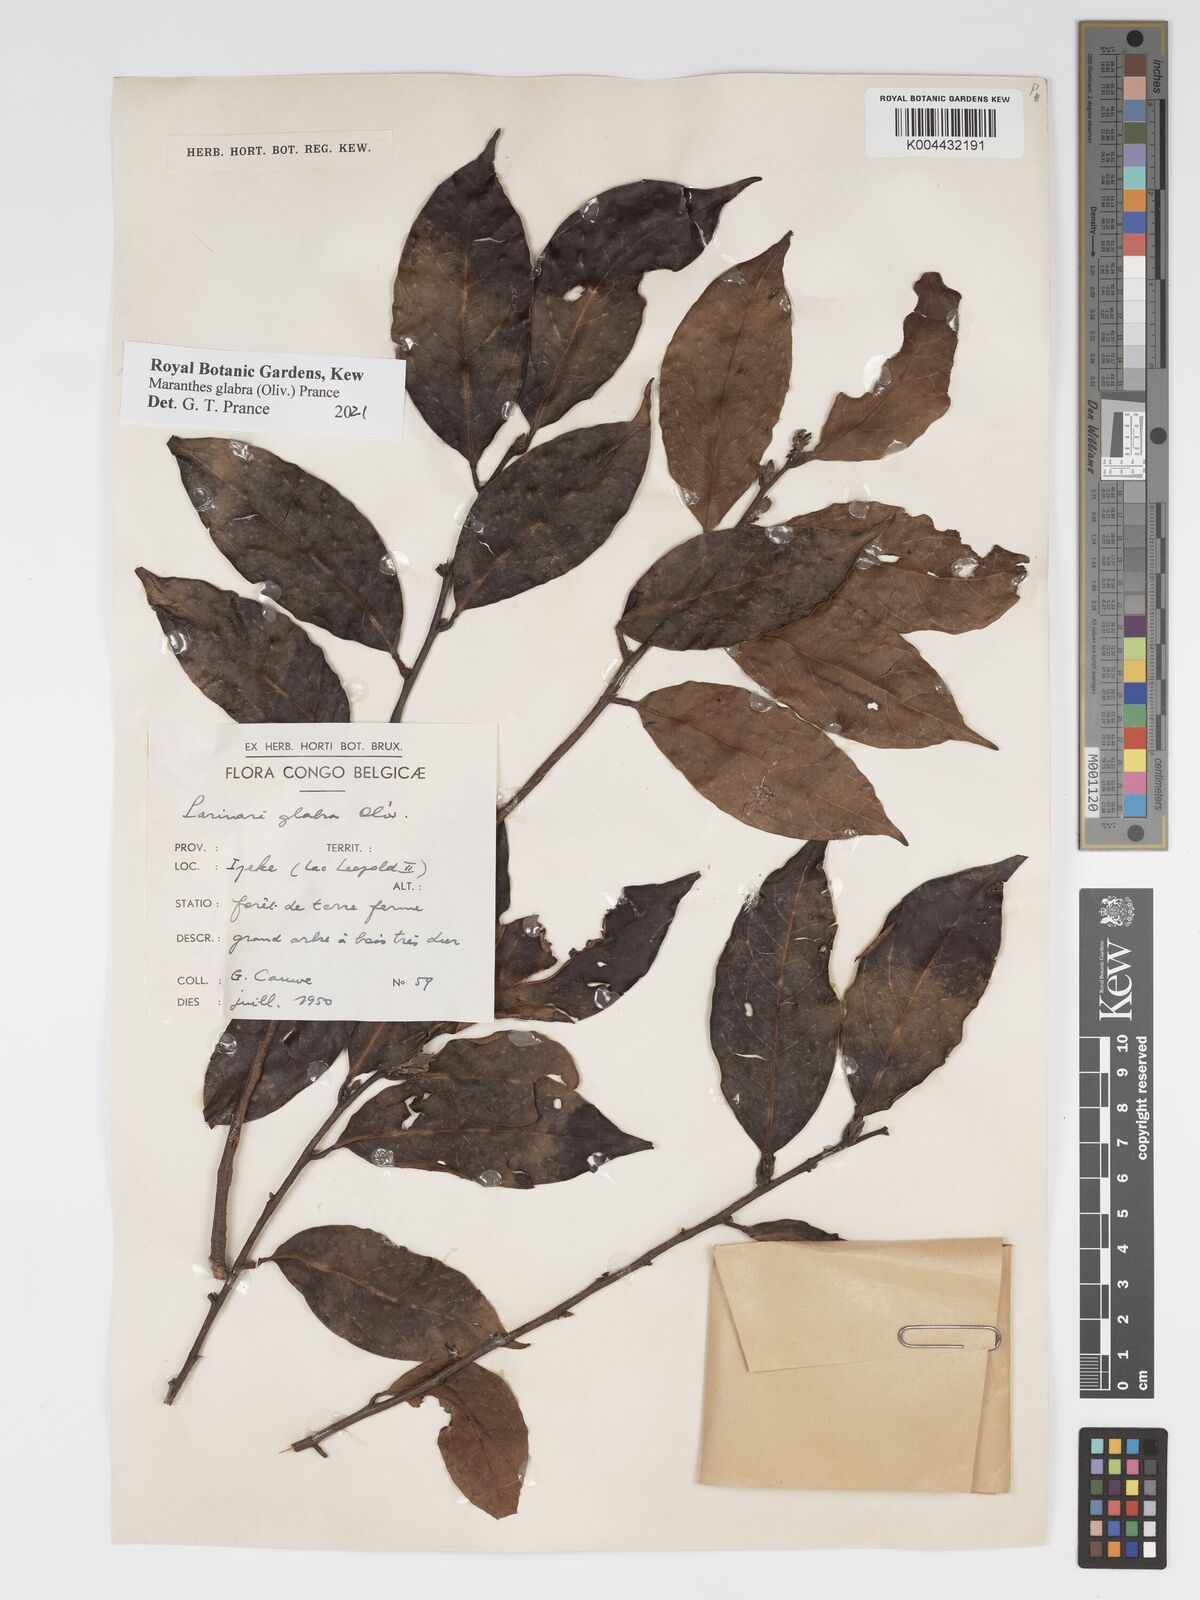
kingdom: Plantae
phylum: Tracheophyta
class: Magnoliopsida
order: Malpighiales
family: Chrysobalanaceae
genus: Maranthes
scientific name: Maranthes glabra
